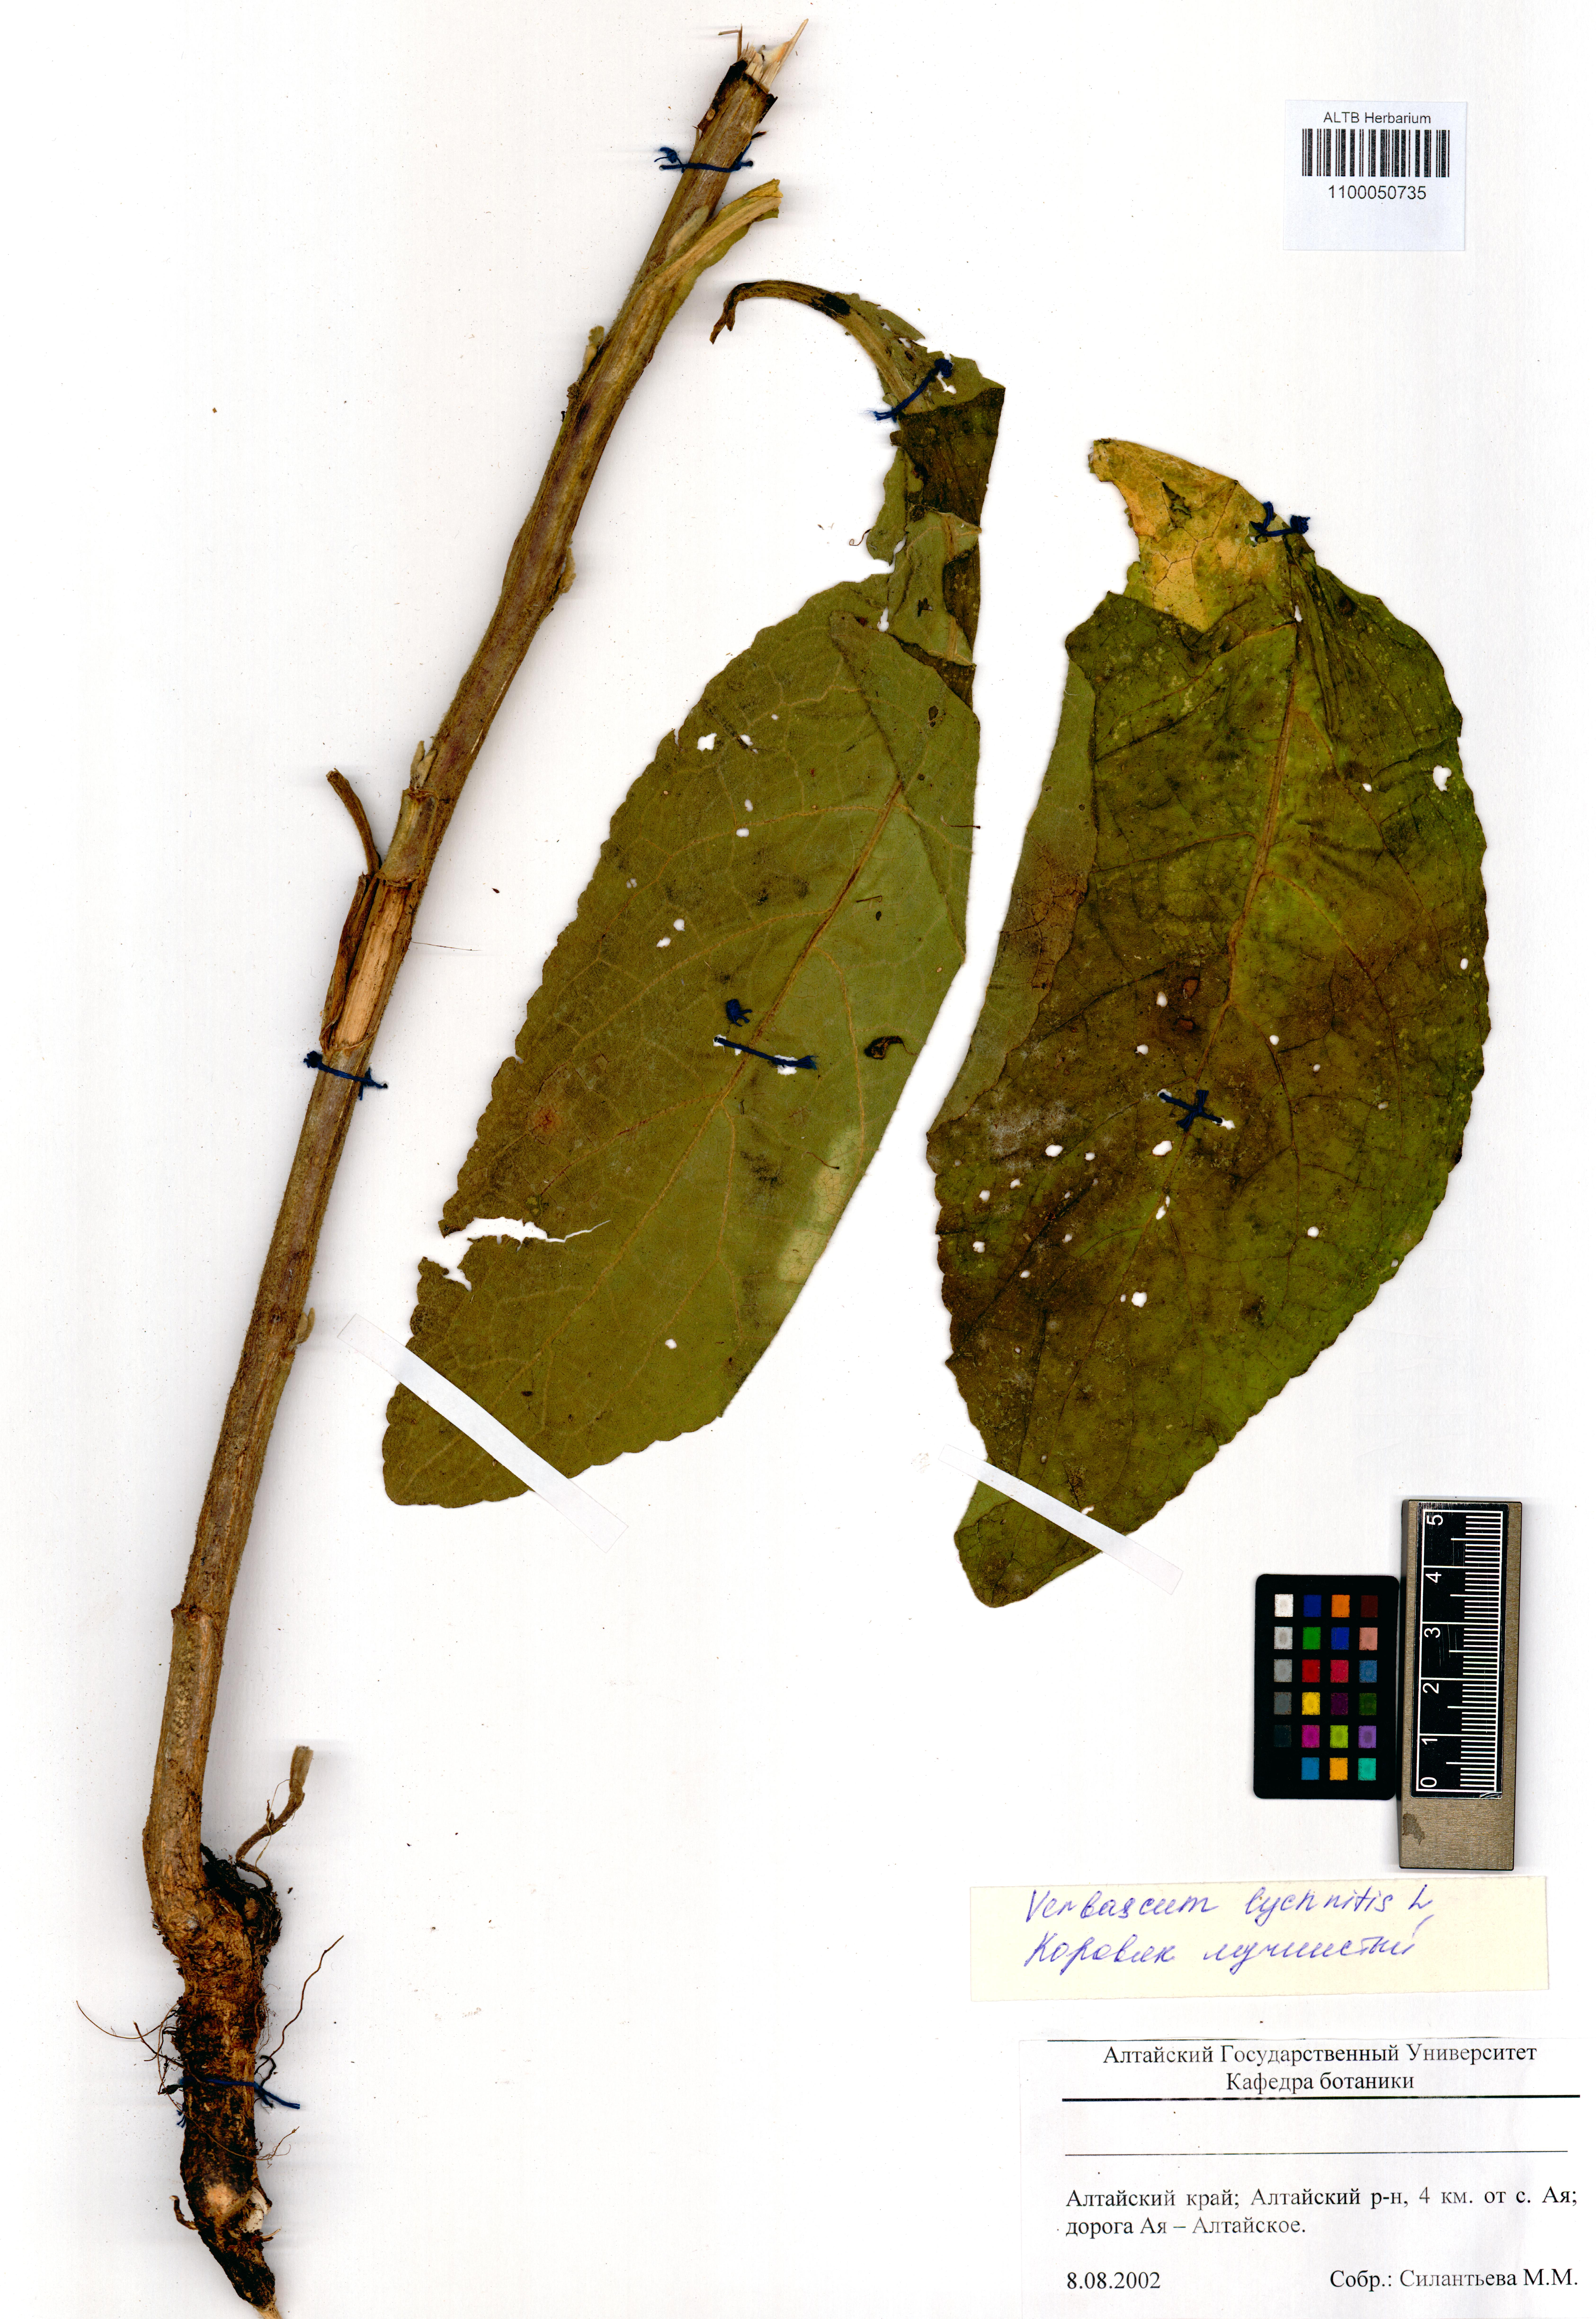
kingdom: Plantae
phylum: Tracheophyta
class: Magnoliopsida
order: Lamiales
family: Scrophulariaceae
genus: Verbascum
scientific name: Verbascum lychnitis
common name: White mullein
